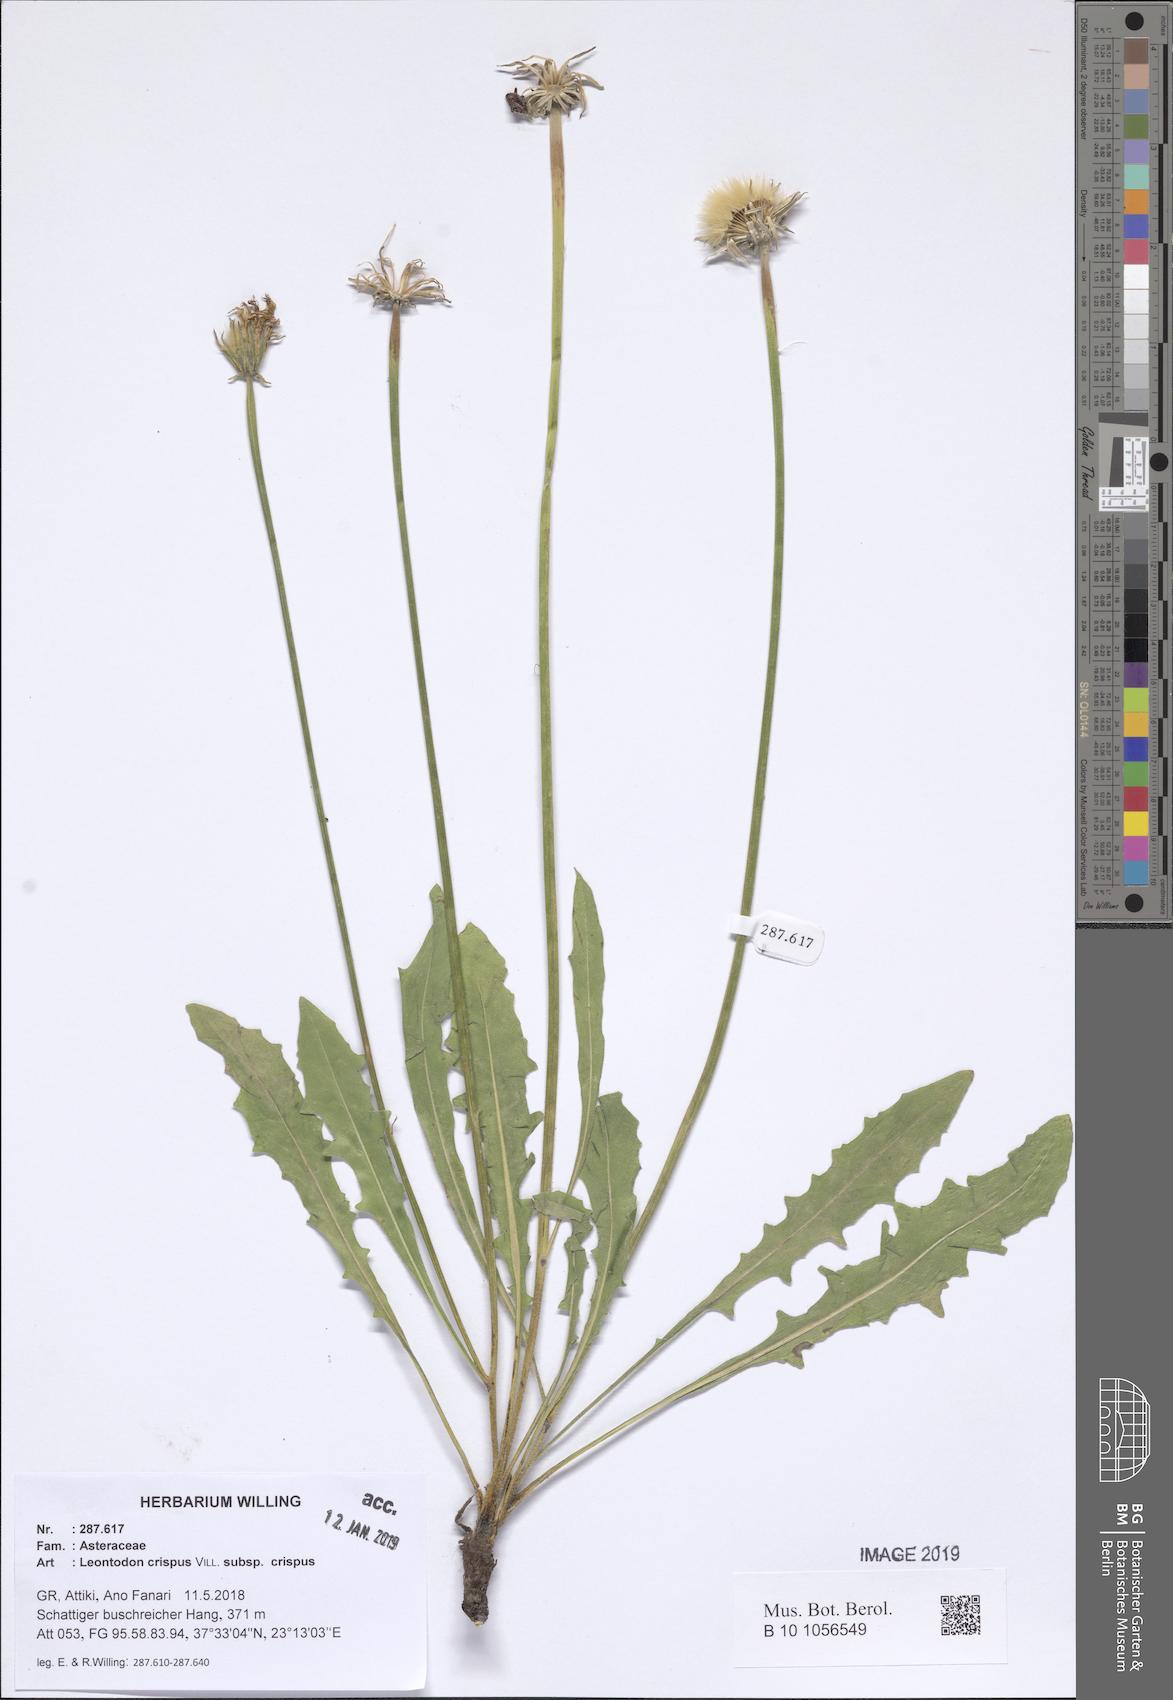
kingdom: Plantae
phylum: Tracheophyta
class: Magnoliopsida
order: Asterales
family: Asteraceae
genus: Leontodon
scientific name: Leontodon hyoseroides
